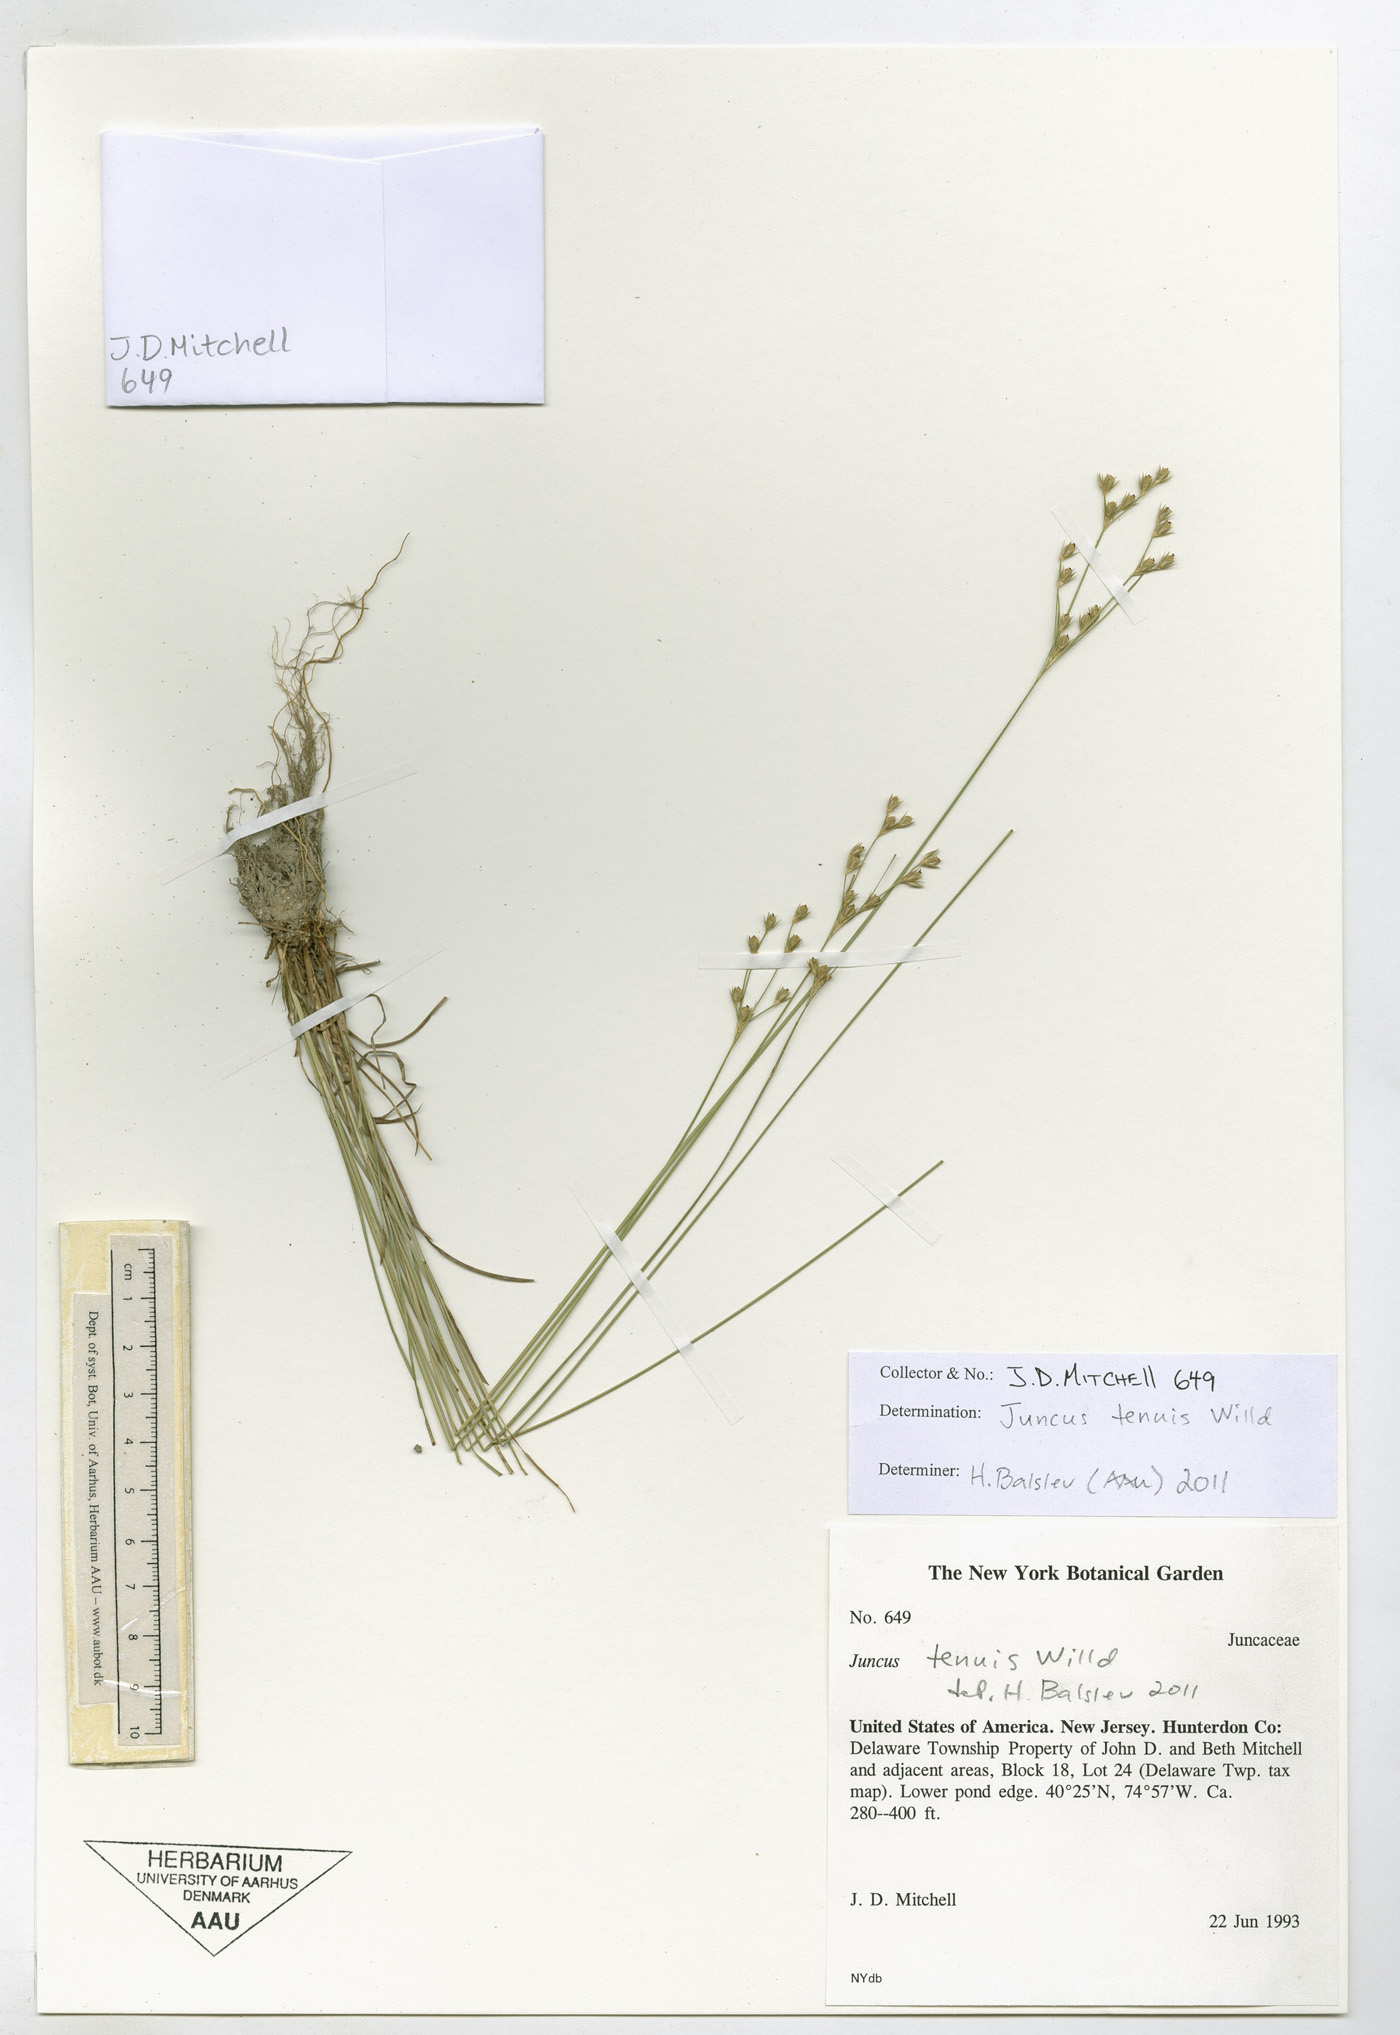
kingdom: Plantae
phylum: Tracheophyta
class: Liliopsida
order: Poales
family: Juncaceae
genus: Juncus
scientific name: Juncus tenuis
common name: Slender rush
